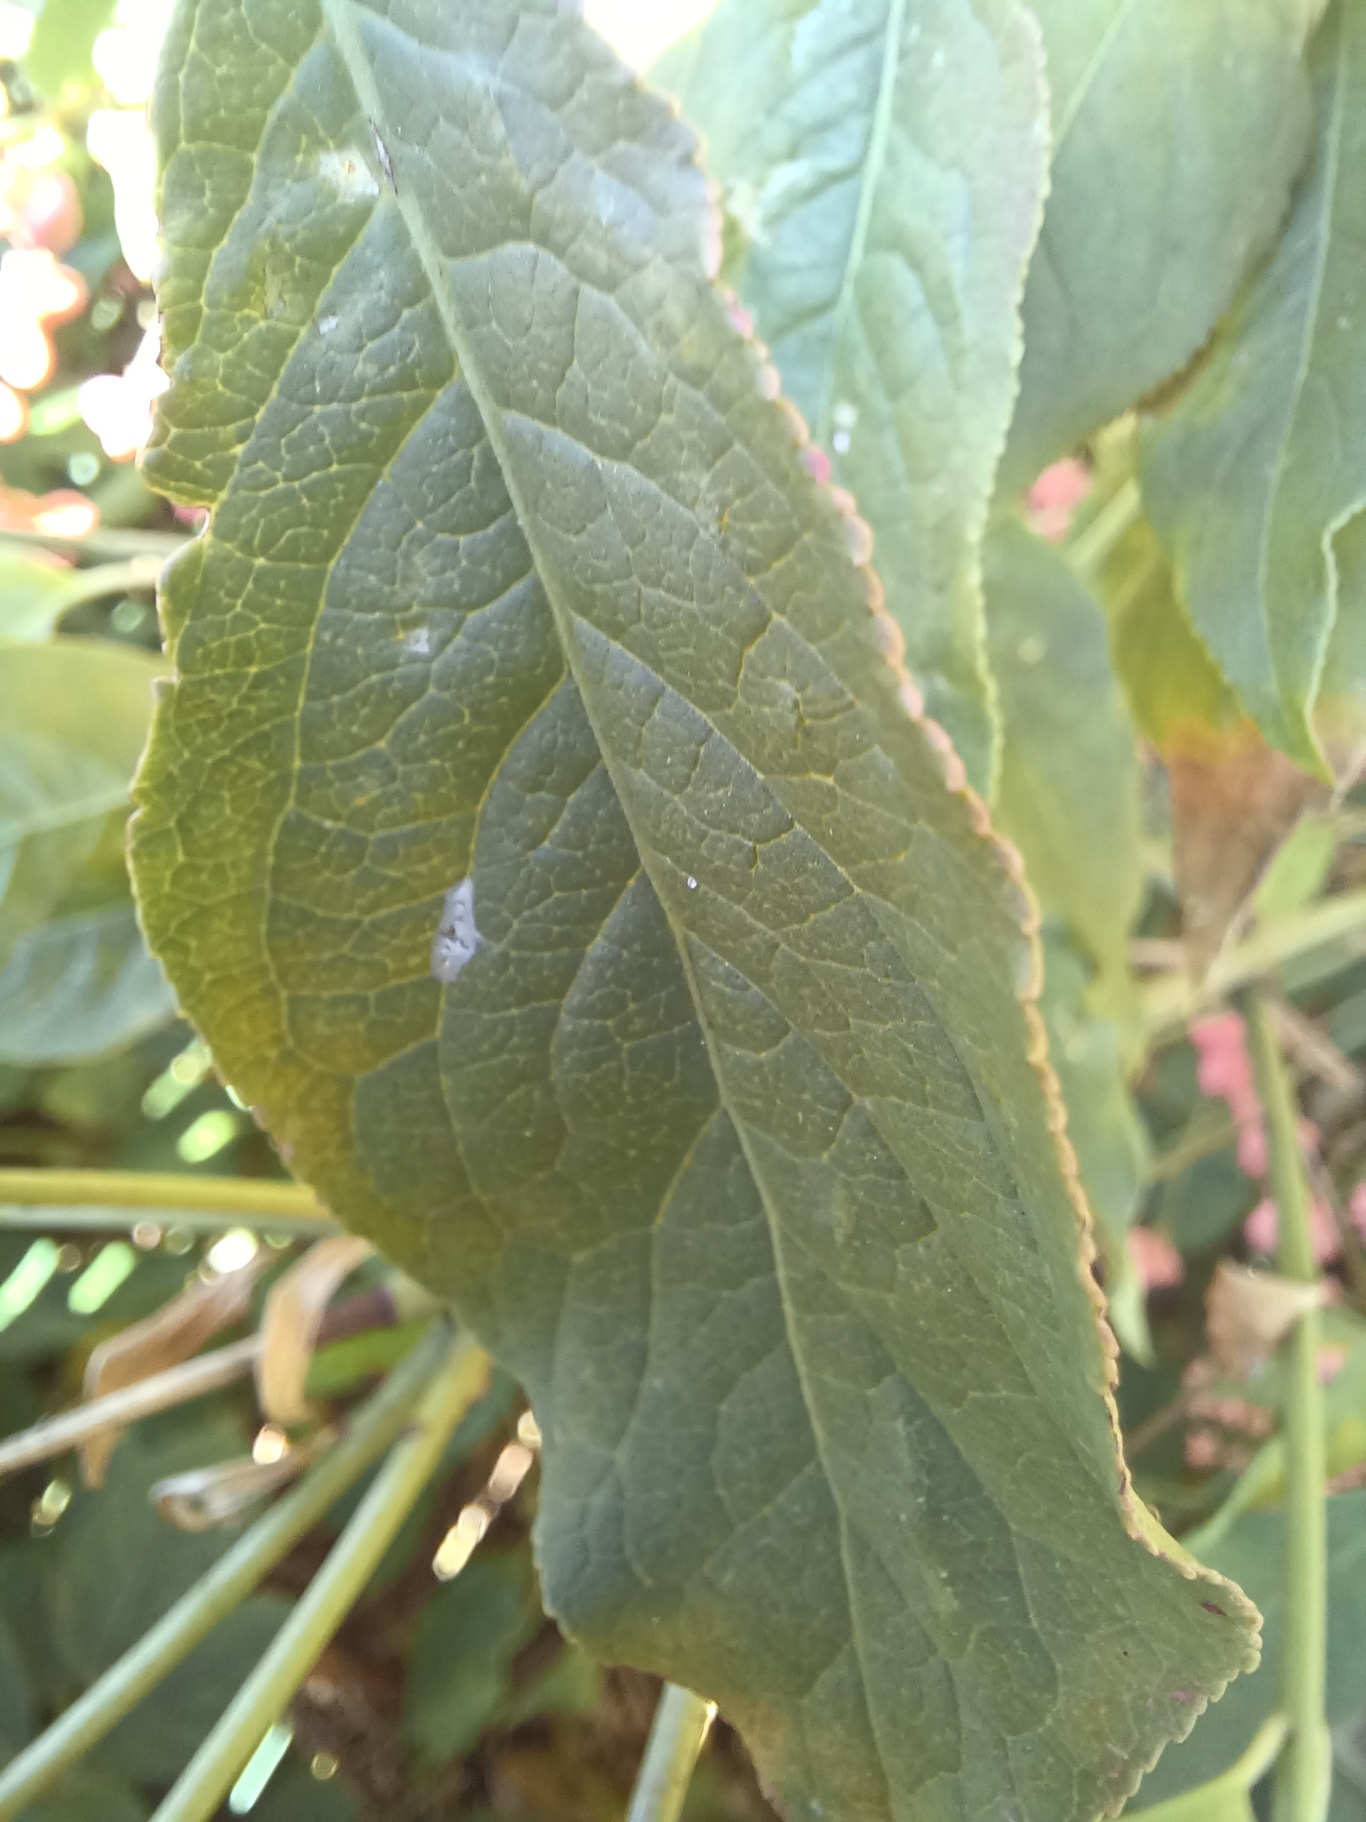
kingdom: Plantae
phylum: Tracheophyta
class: Magnoliopsida
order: Celastrales
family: Celastraceae
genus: Euonymus
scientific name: Euonymus europaeus
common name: Benved
